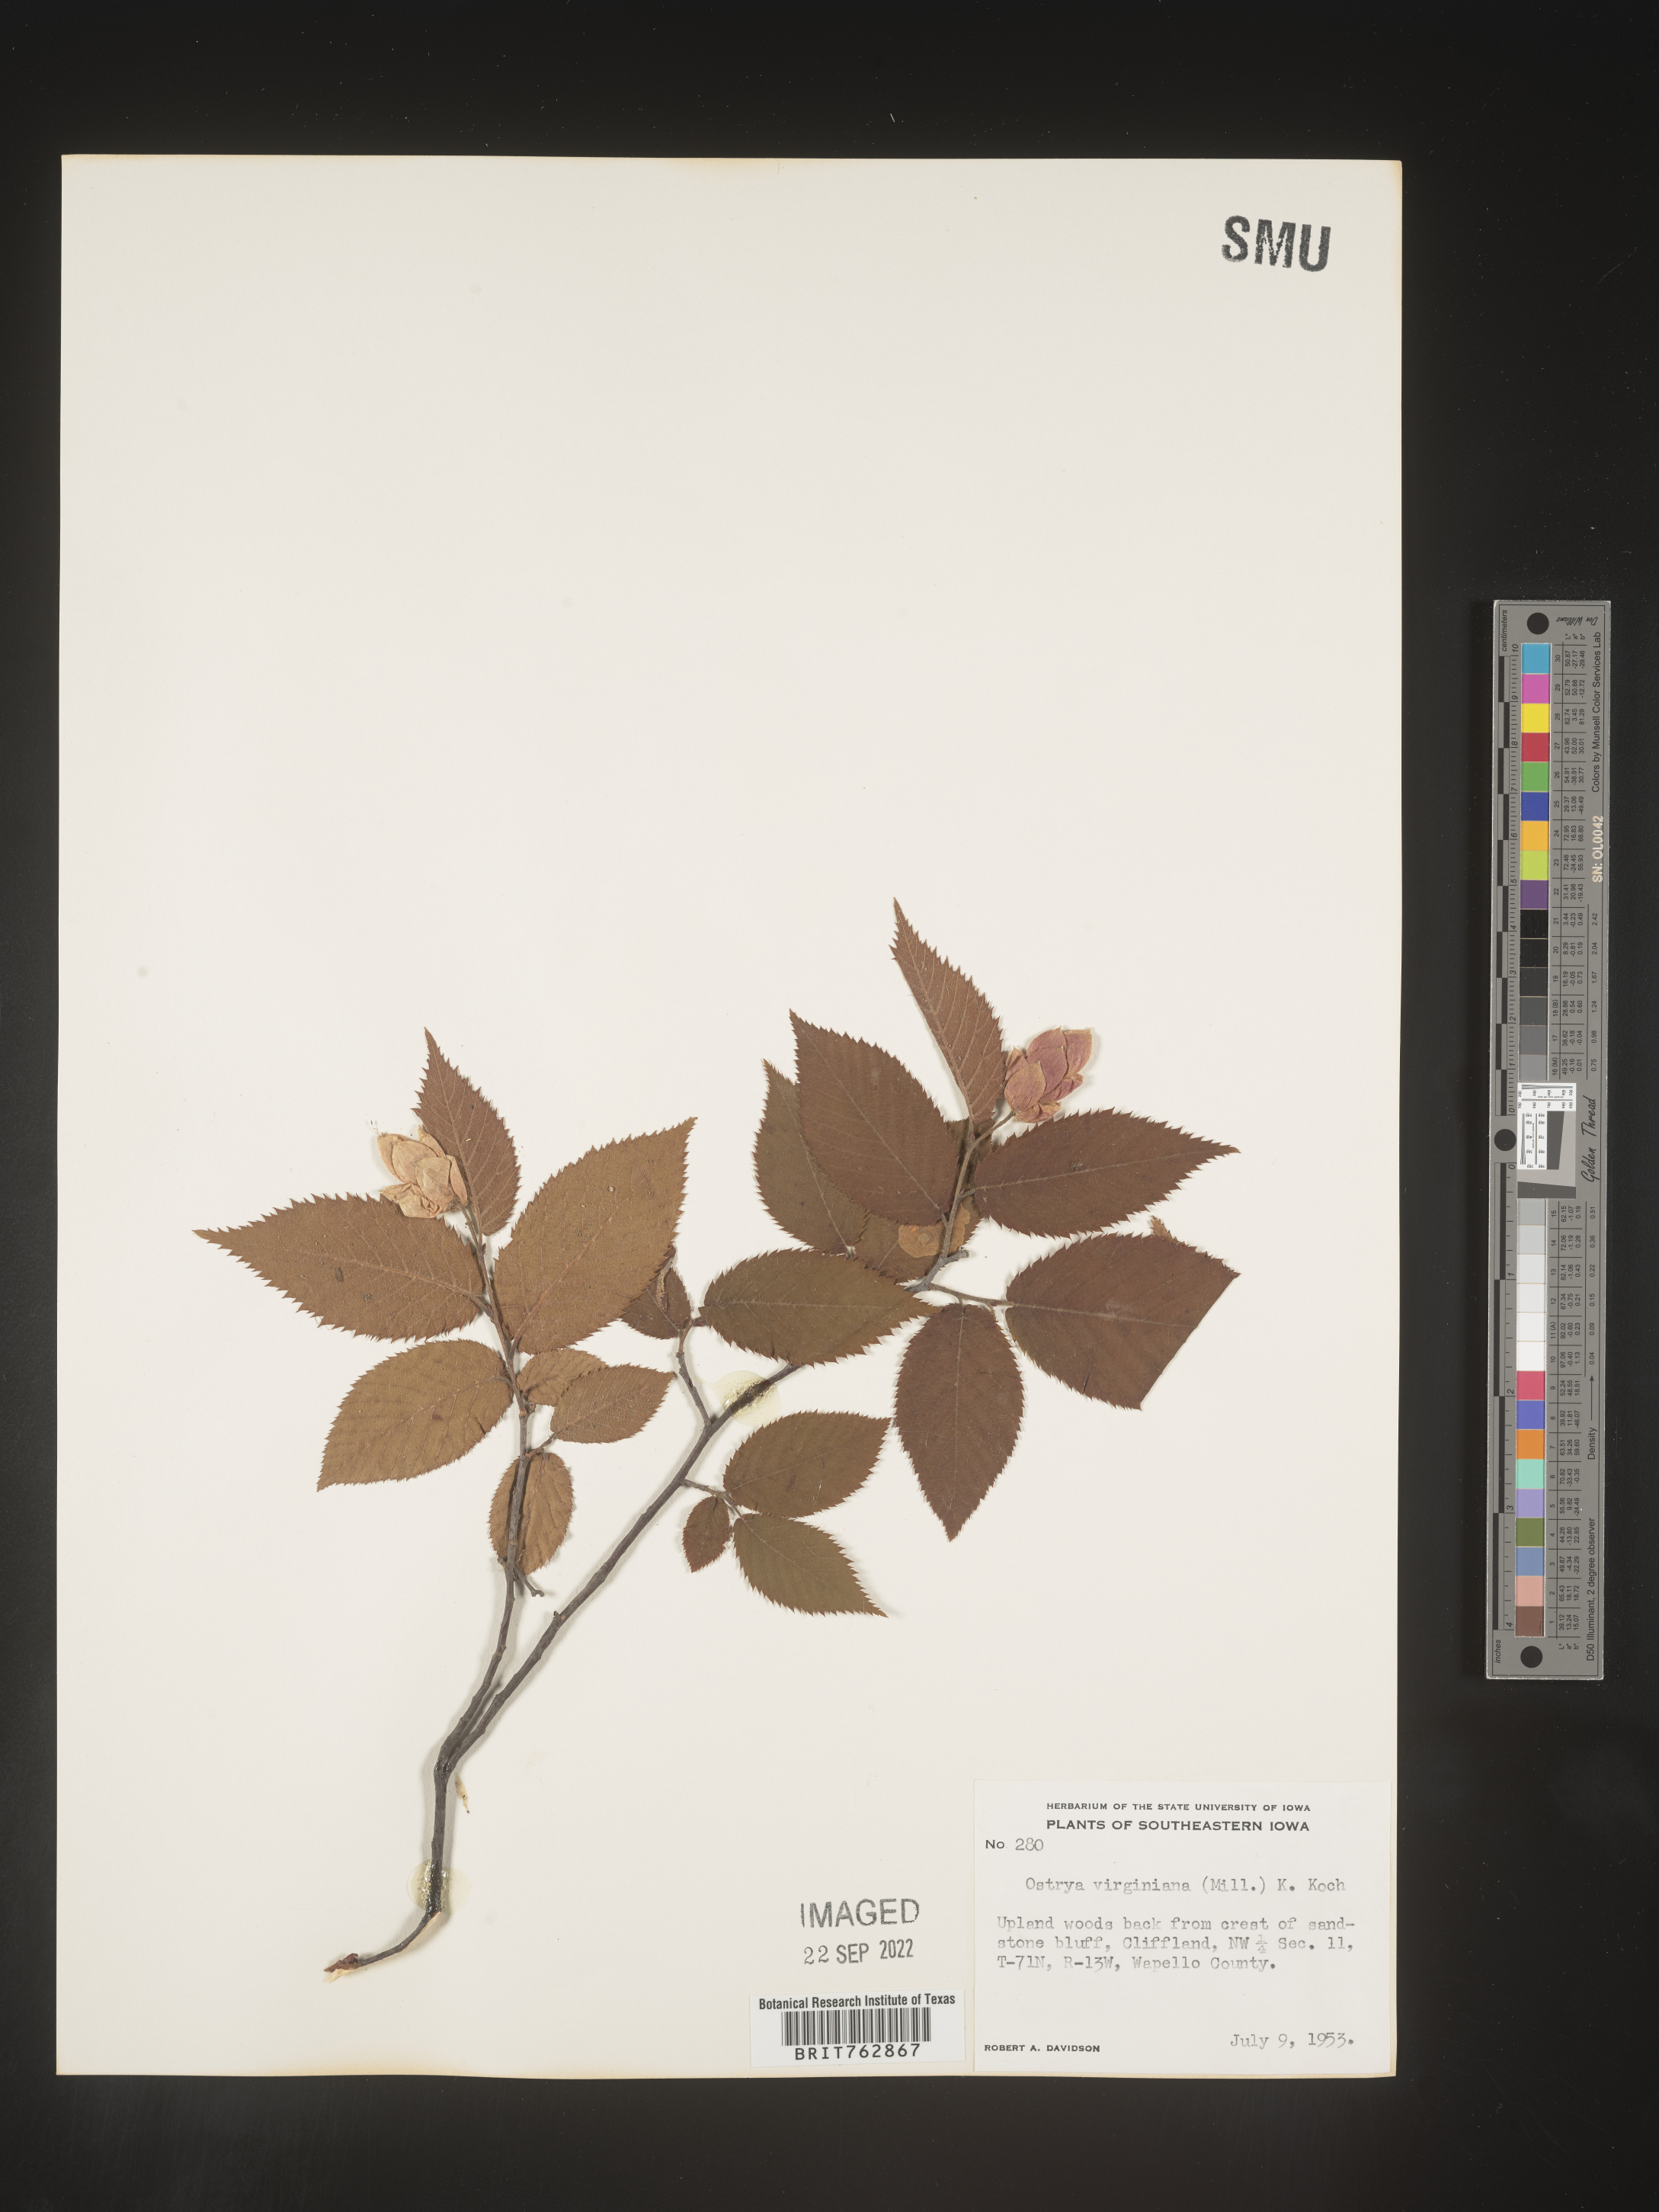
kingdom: Plantae
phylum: Tracheophyta
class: Magnoliopsida
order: Fagales
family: Betulaceae
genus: Ostrya
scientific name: Ostrya virginiana
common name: Ironwood
